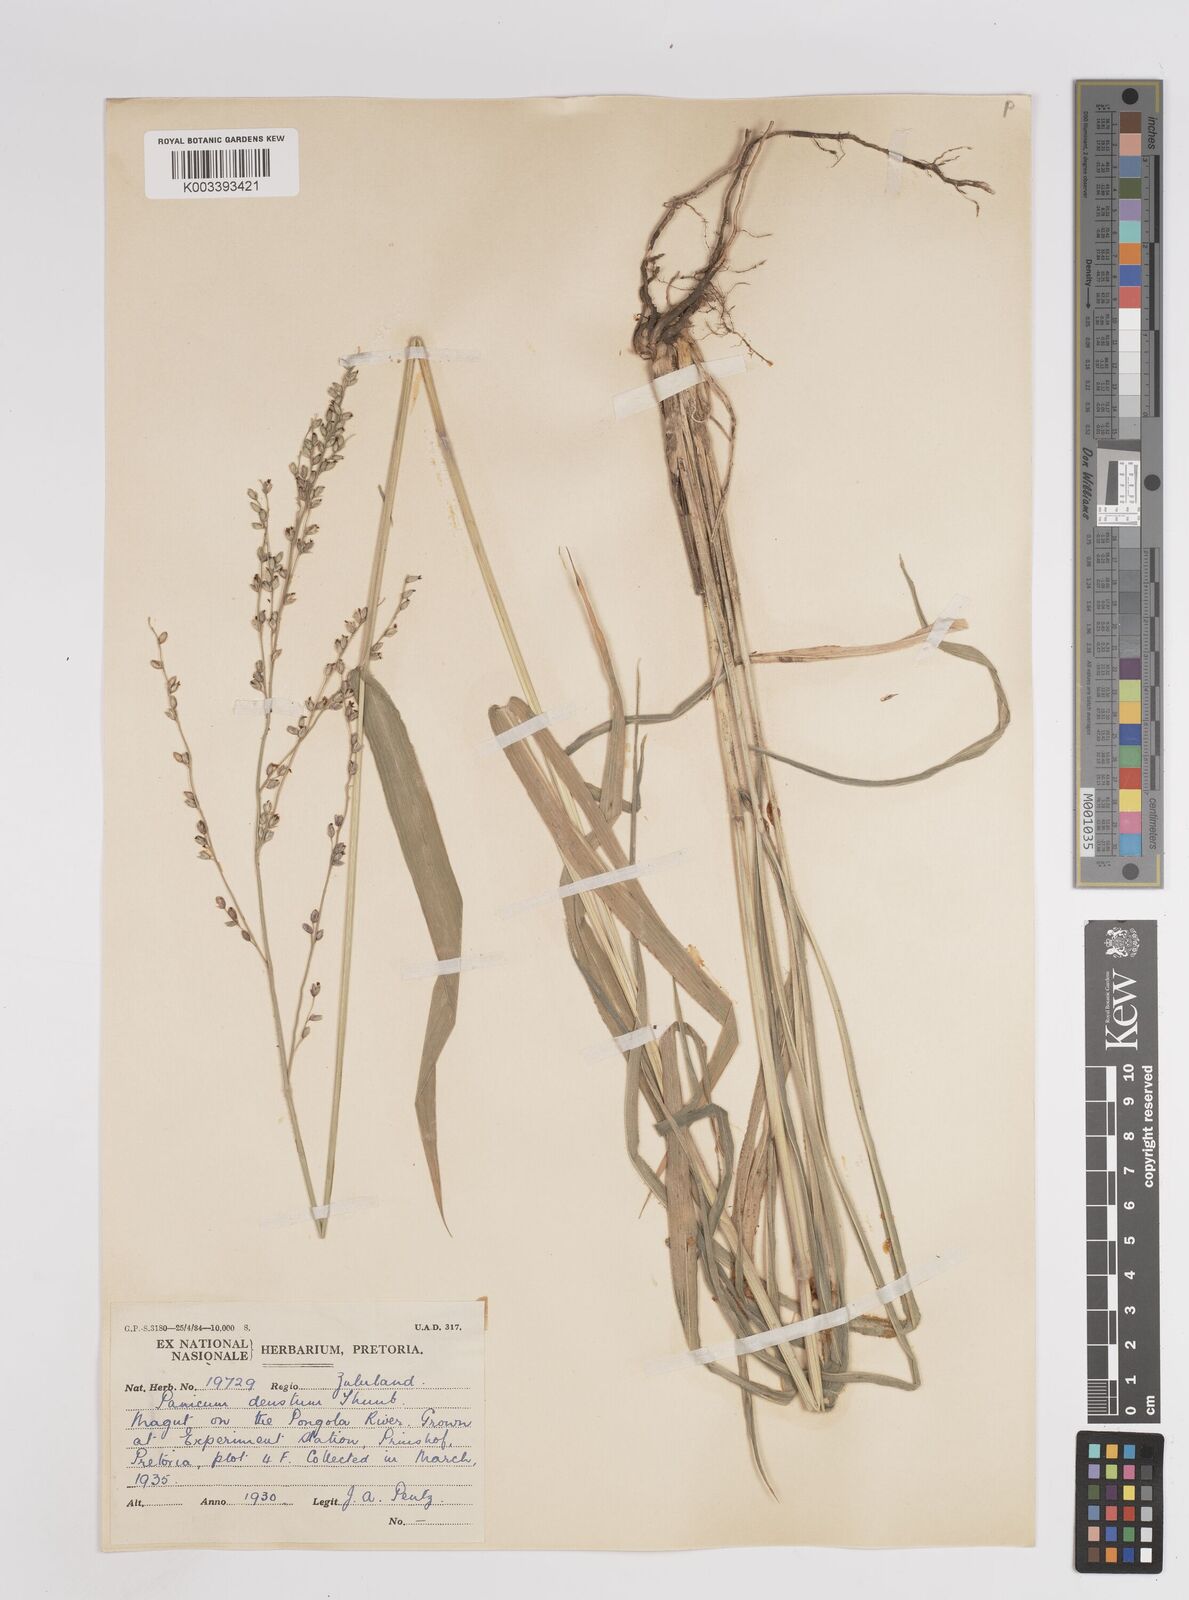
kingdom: Plantae
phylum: Tracheophyta
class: Liliopsida
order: Poales
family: Poaceae
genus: Panicum
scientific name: Panicum deustum
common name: Reed panicum
